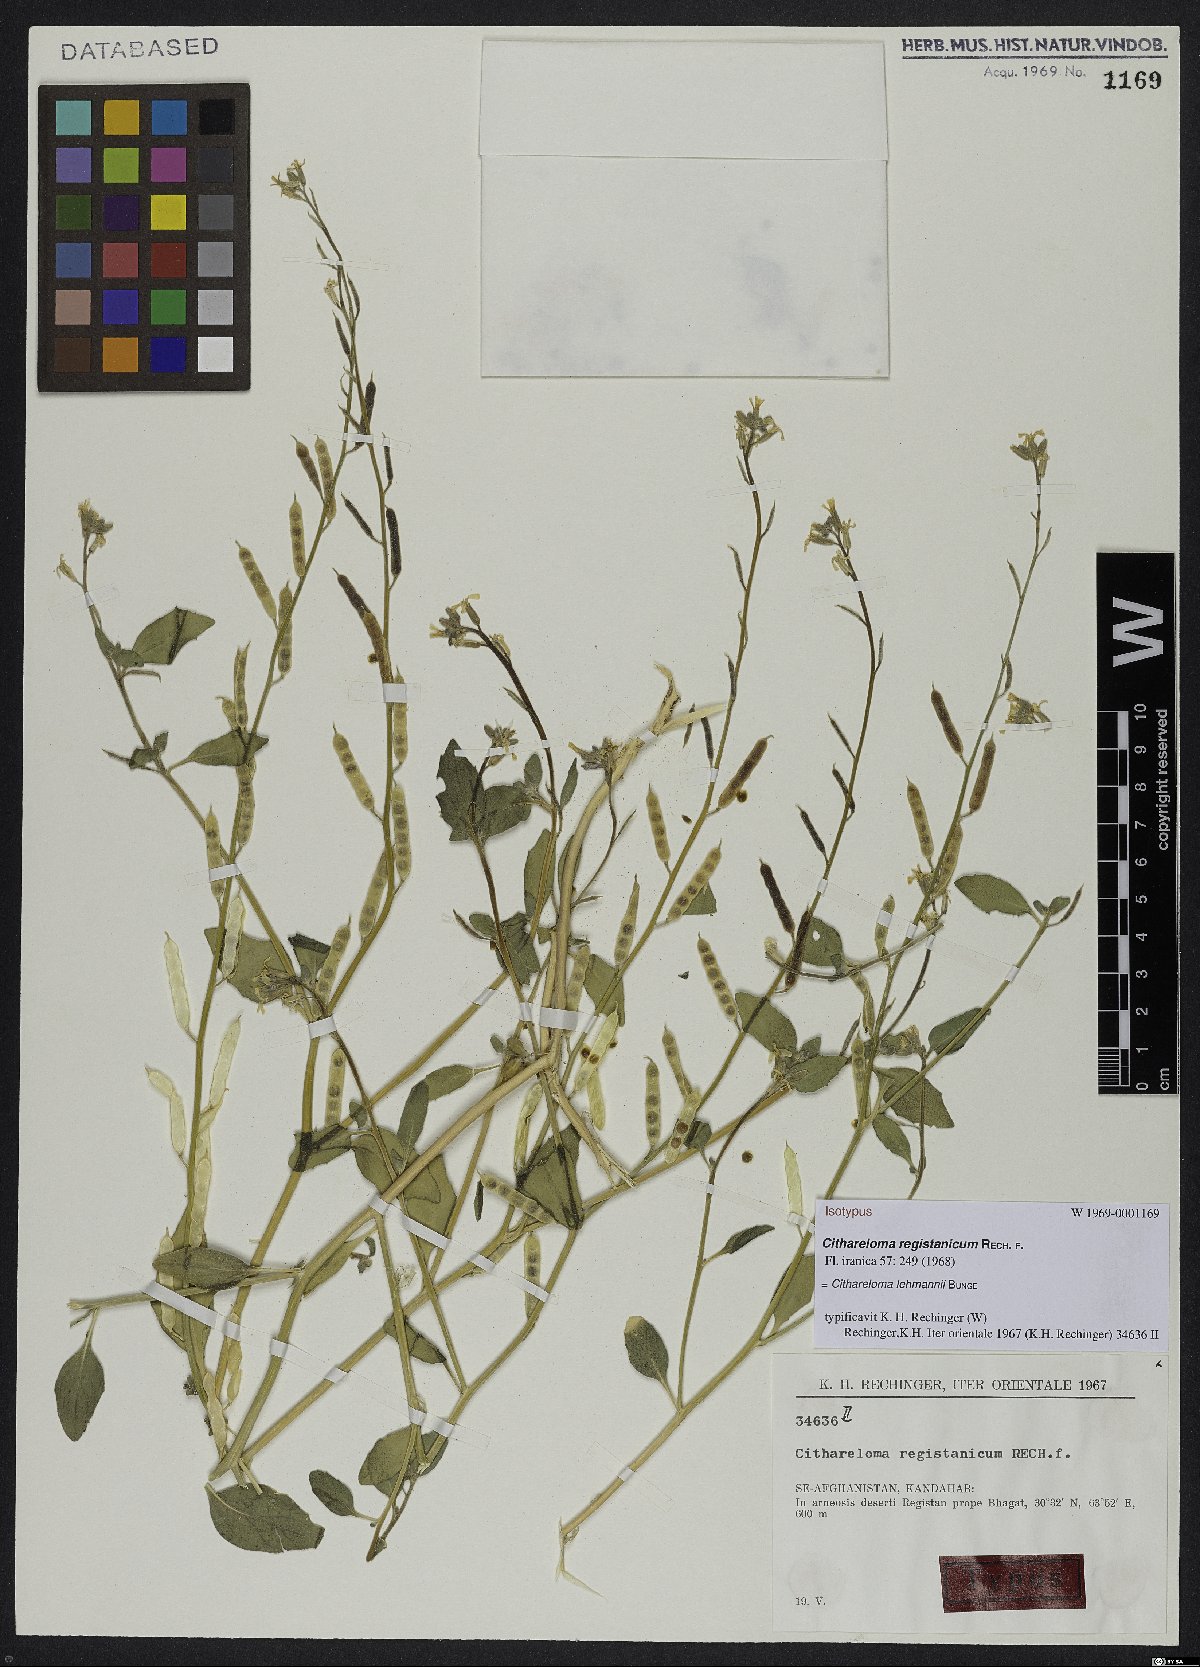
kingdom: Plantae
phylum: Tracheophyta
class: Magnoliopsida
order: Brassicales
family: Brassicaceae
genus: Cithareloma
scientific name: Cithareloma lehmannii
